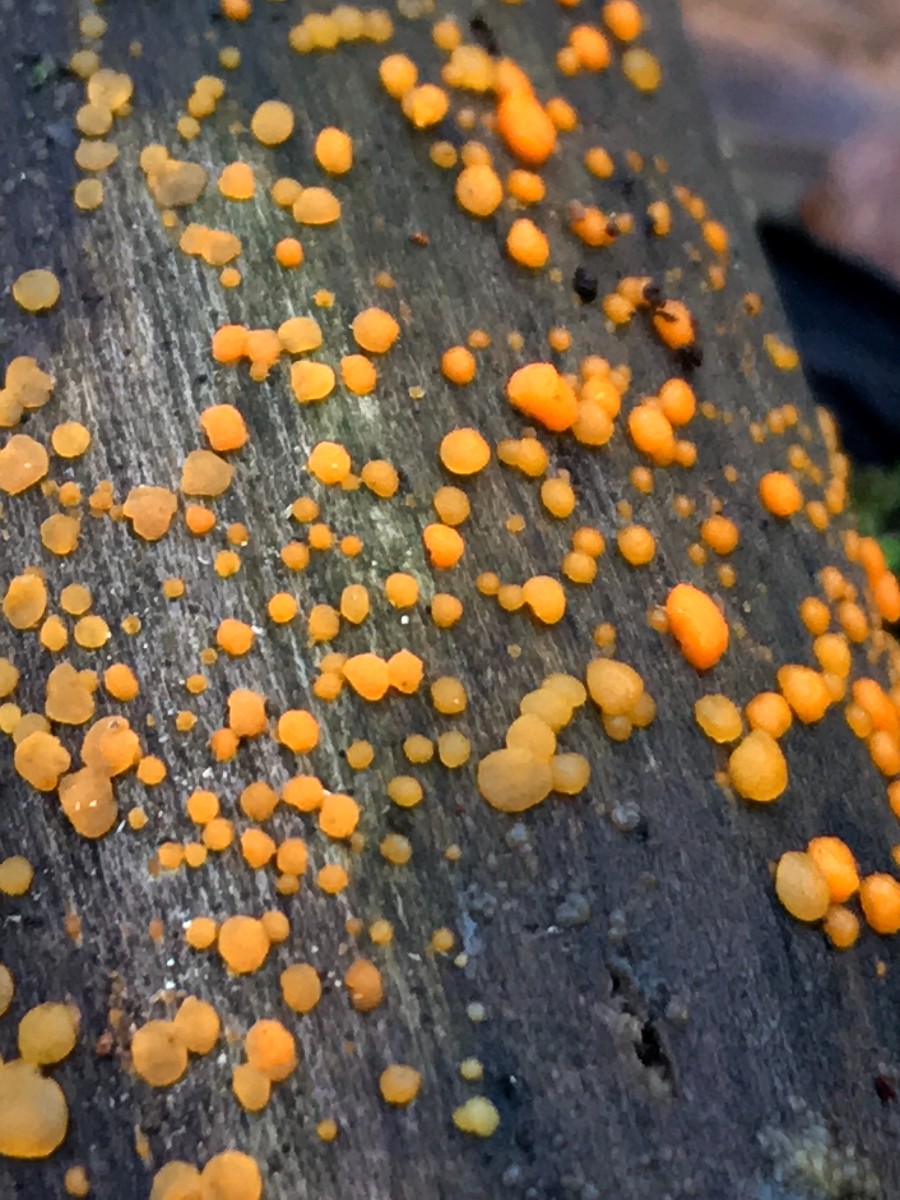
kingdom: Fungi
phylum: Basidiomycota
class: Dacrymycetes
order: Dacrymycetales
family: Dacrymycetaceae
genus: Dacrymyces
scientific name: Dacrymyces stillatus
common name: almindelig tåresvamp
